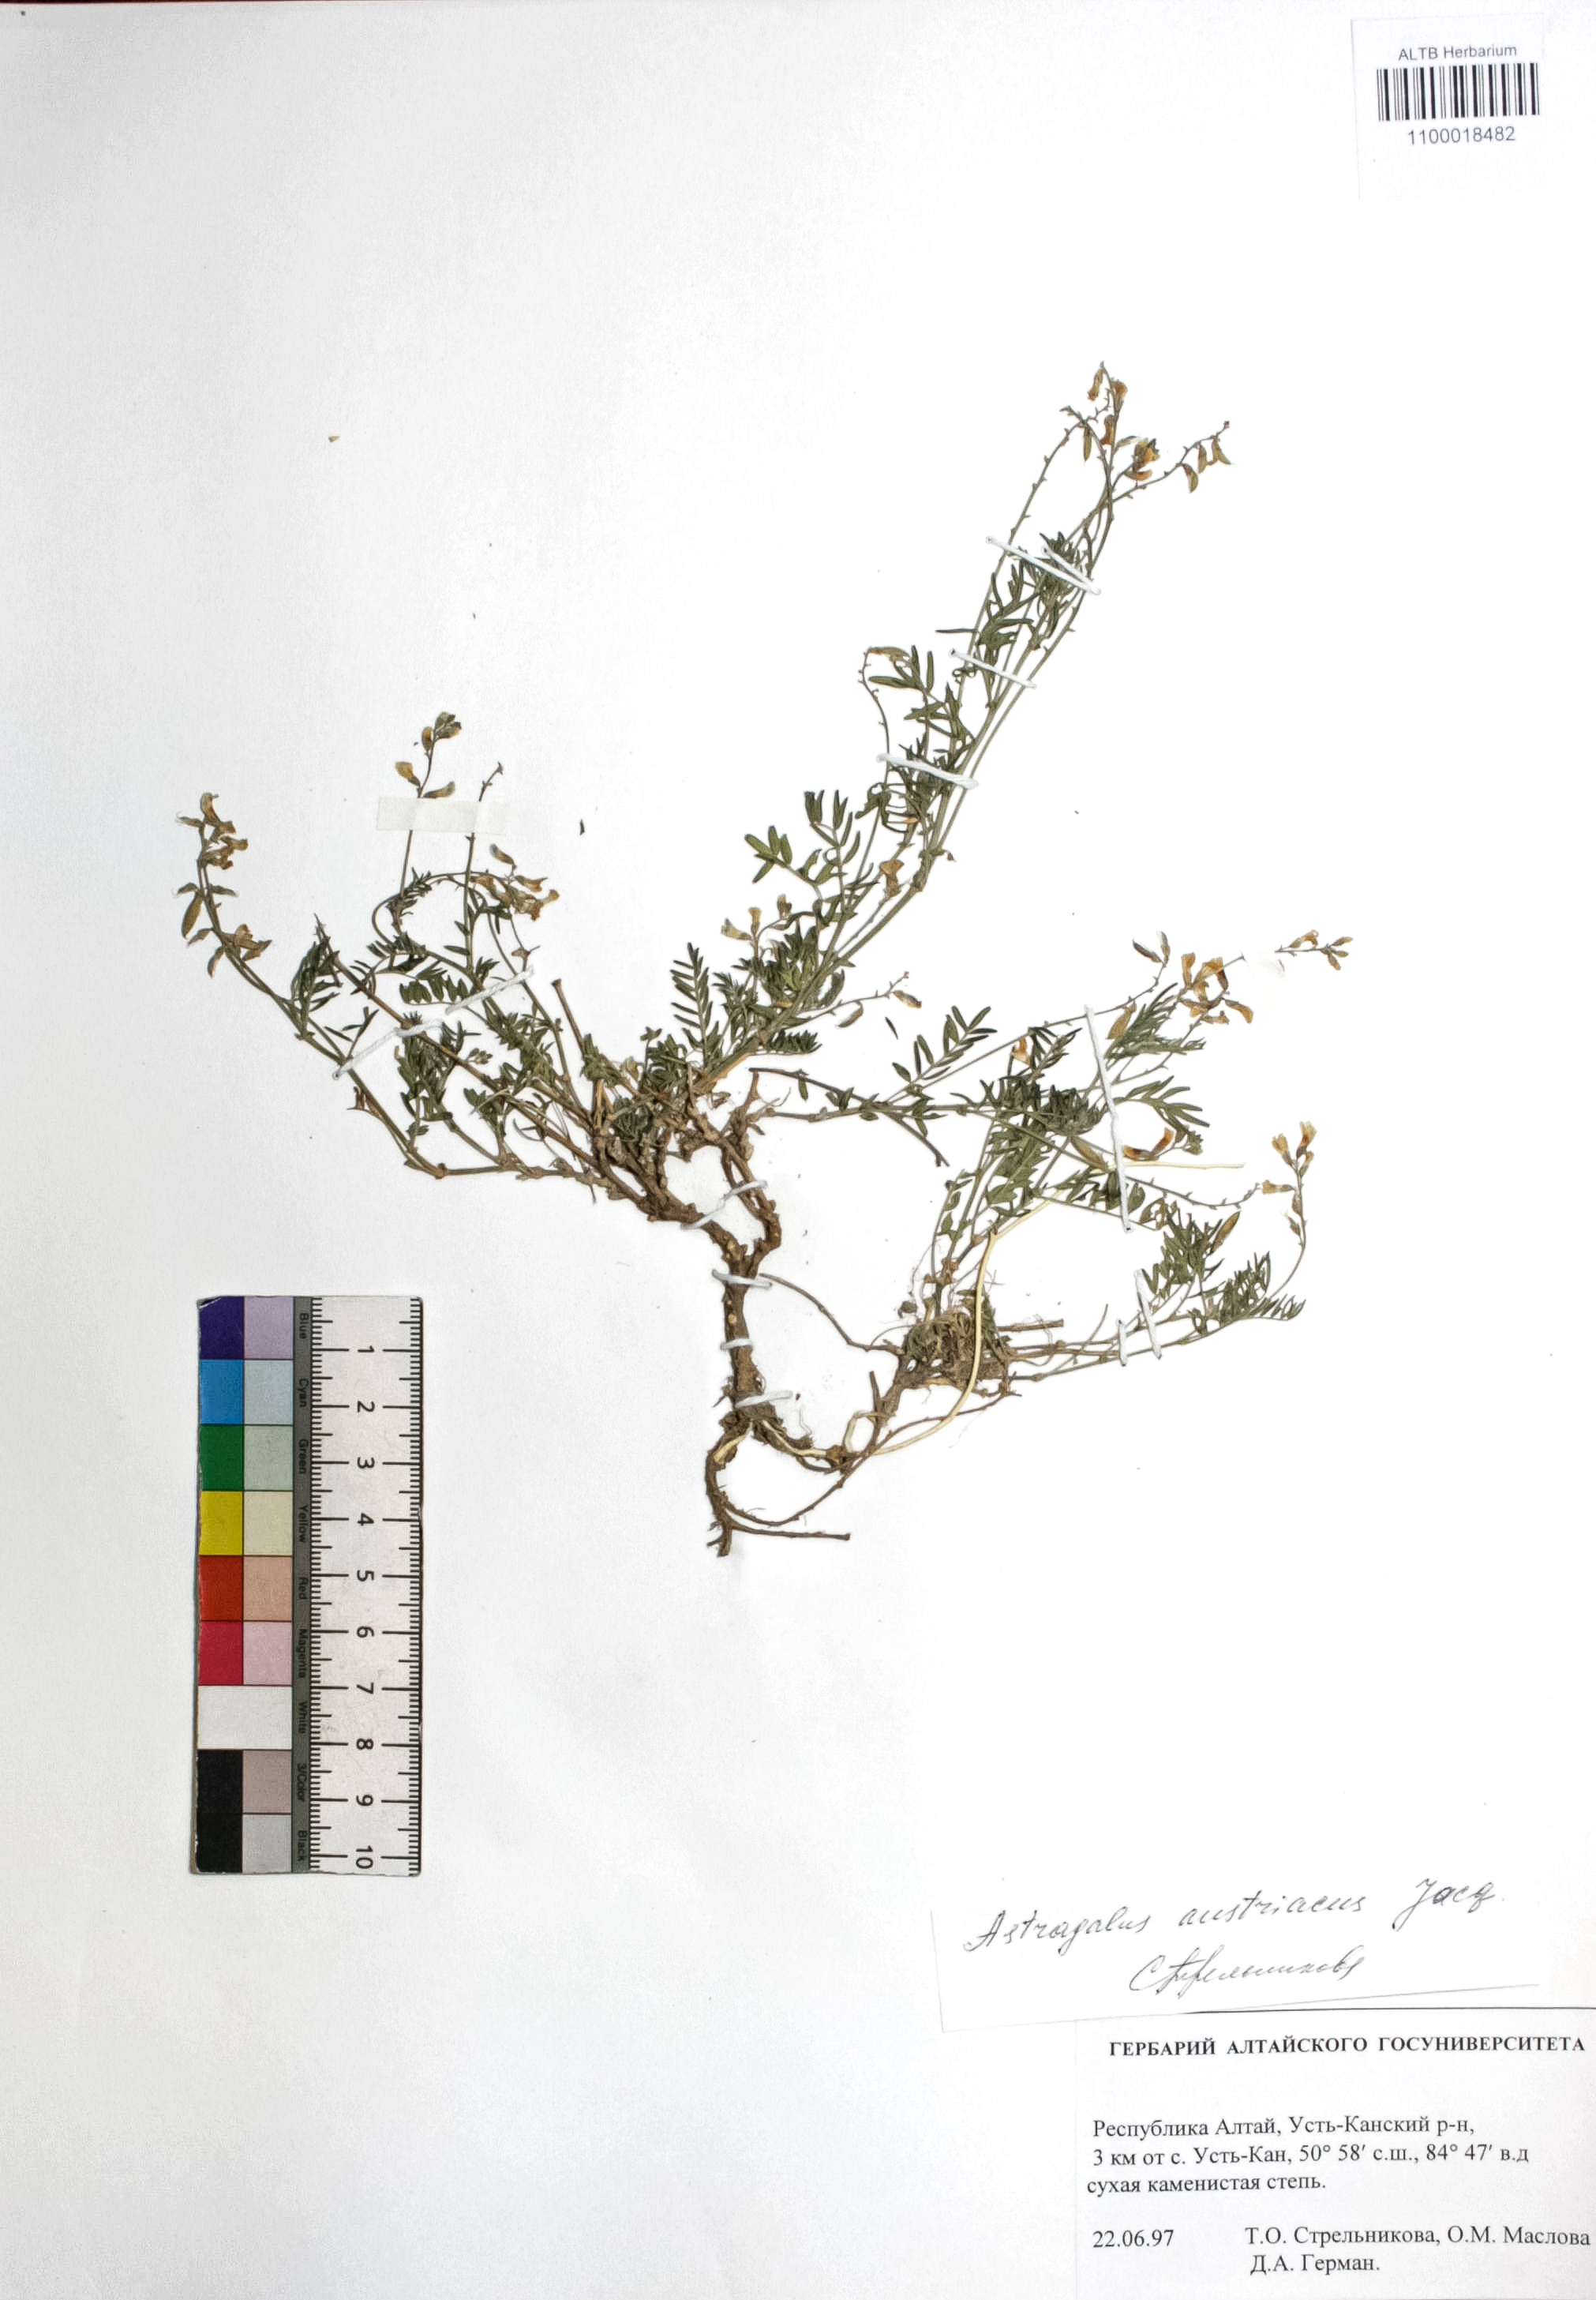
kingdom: Plantae
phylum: Tracheophyta
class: Magnoliopsida
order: Fabales
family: Fabaceae
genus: Astragalus
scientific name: Astragalus austriacus
